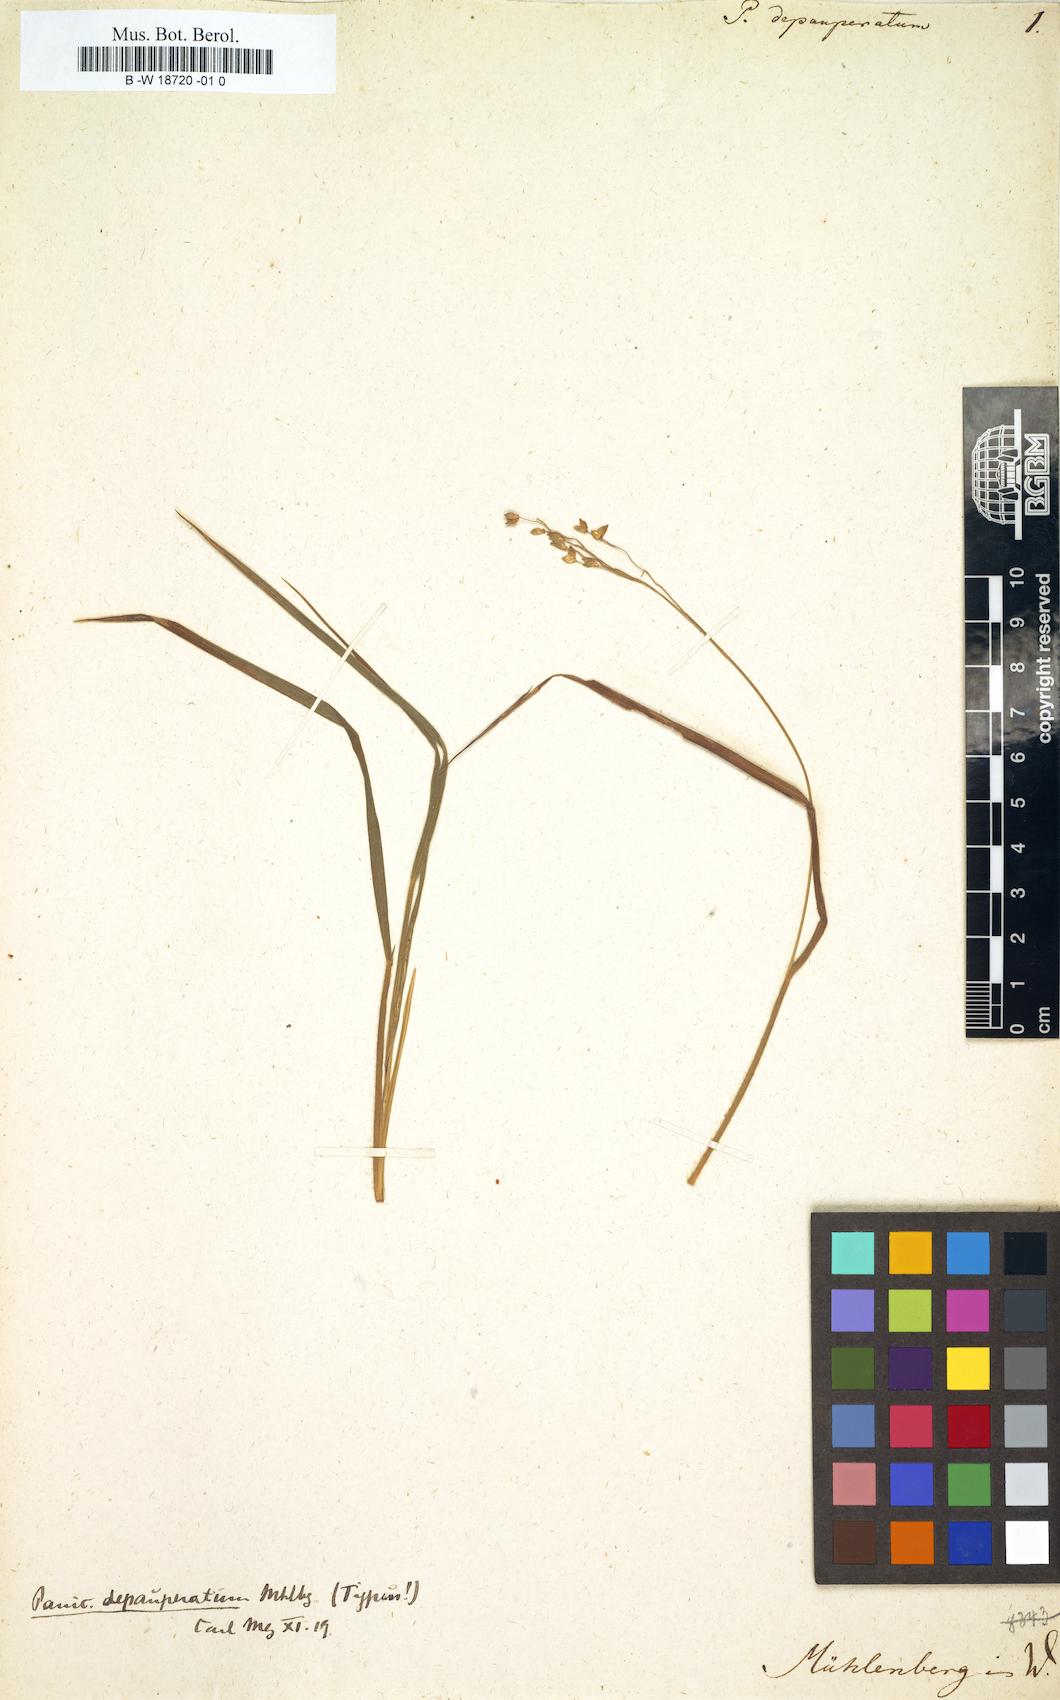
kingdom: Plantae
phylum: Tracheophyta
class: Liliopsida
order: Poales
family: Poaceae
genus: Dichanthelium
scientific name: Dichanthelium depauperatum
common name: Depauperate panicgrass
